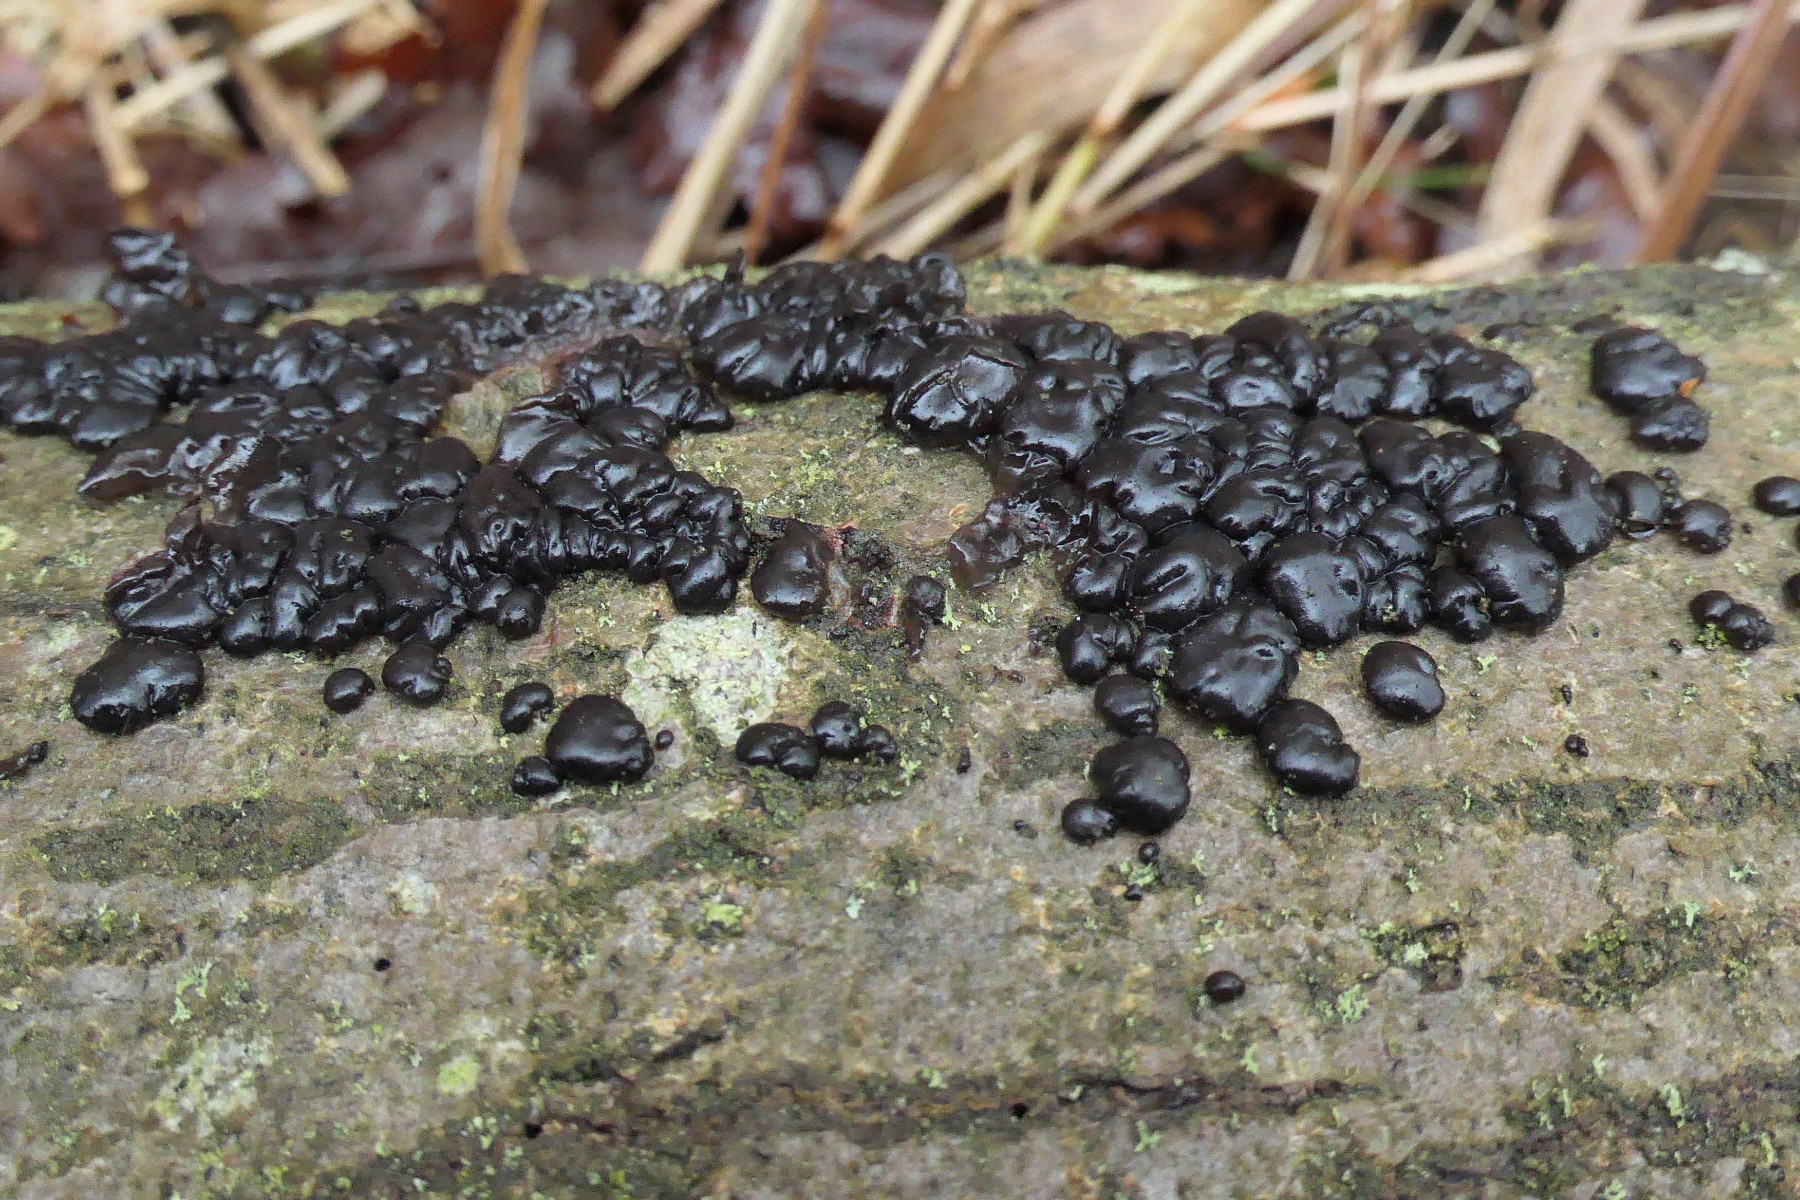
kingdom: Fungi
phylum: Basidiomycota
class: Agaricomycetes
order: Auriculariales
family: Auriculariaceae
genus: Exidia
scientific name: Exidia nigricans
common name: almindelig bævretop
